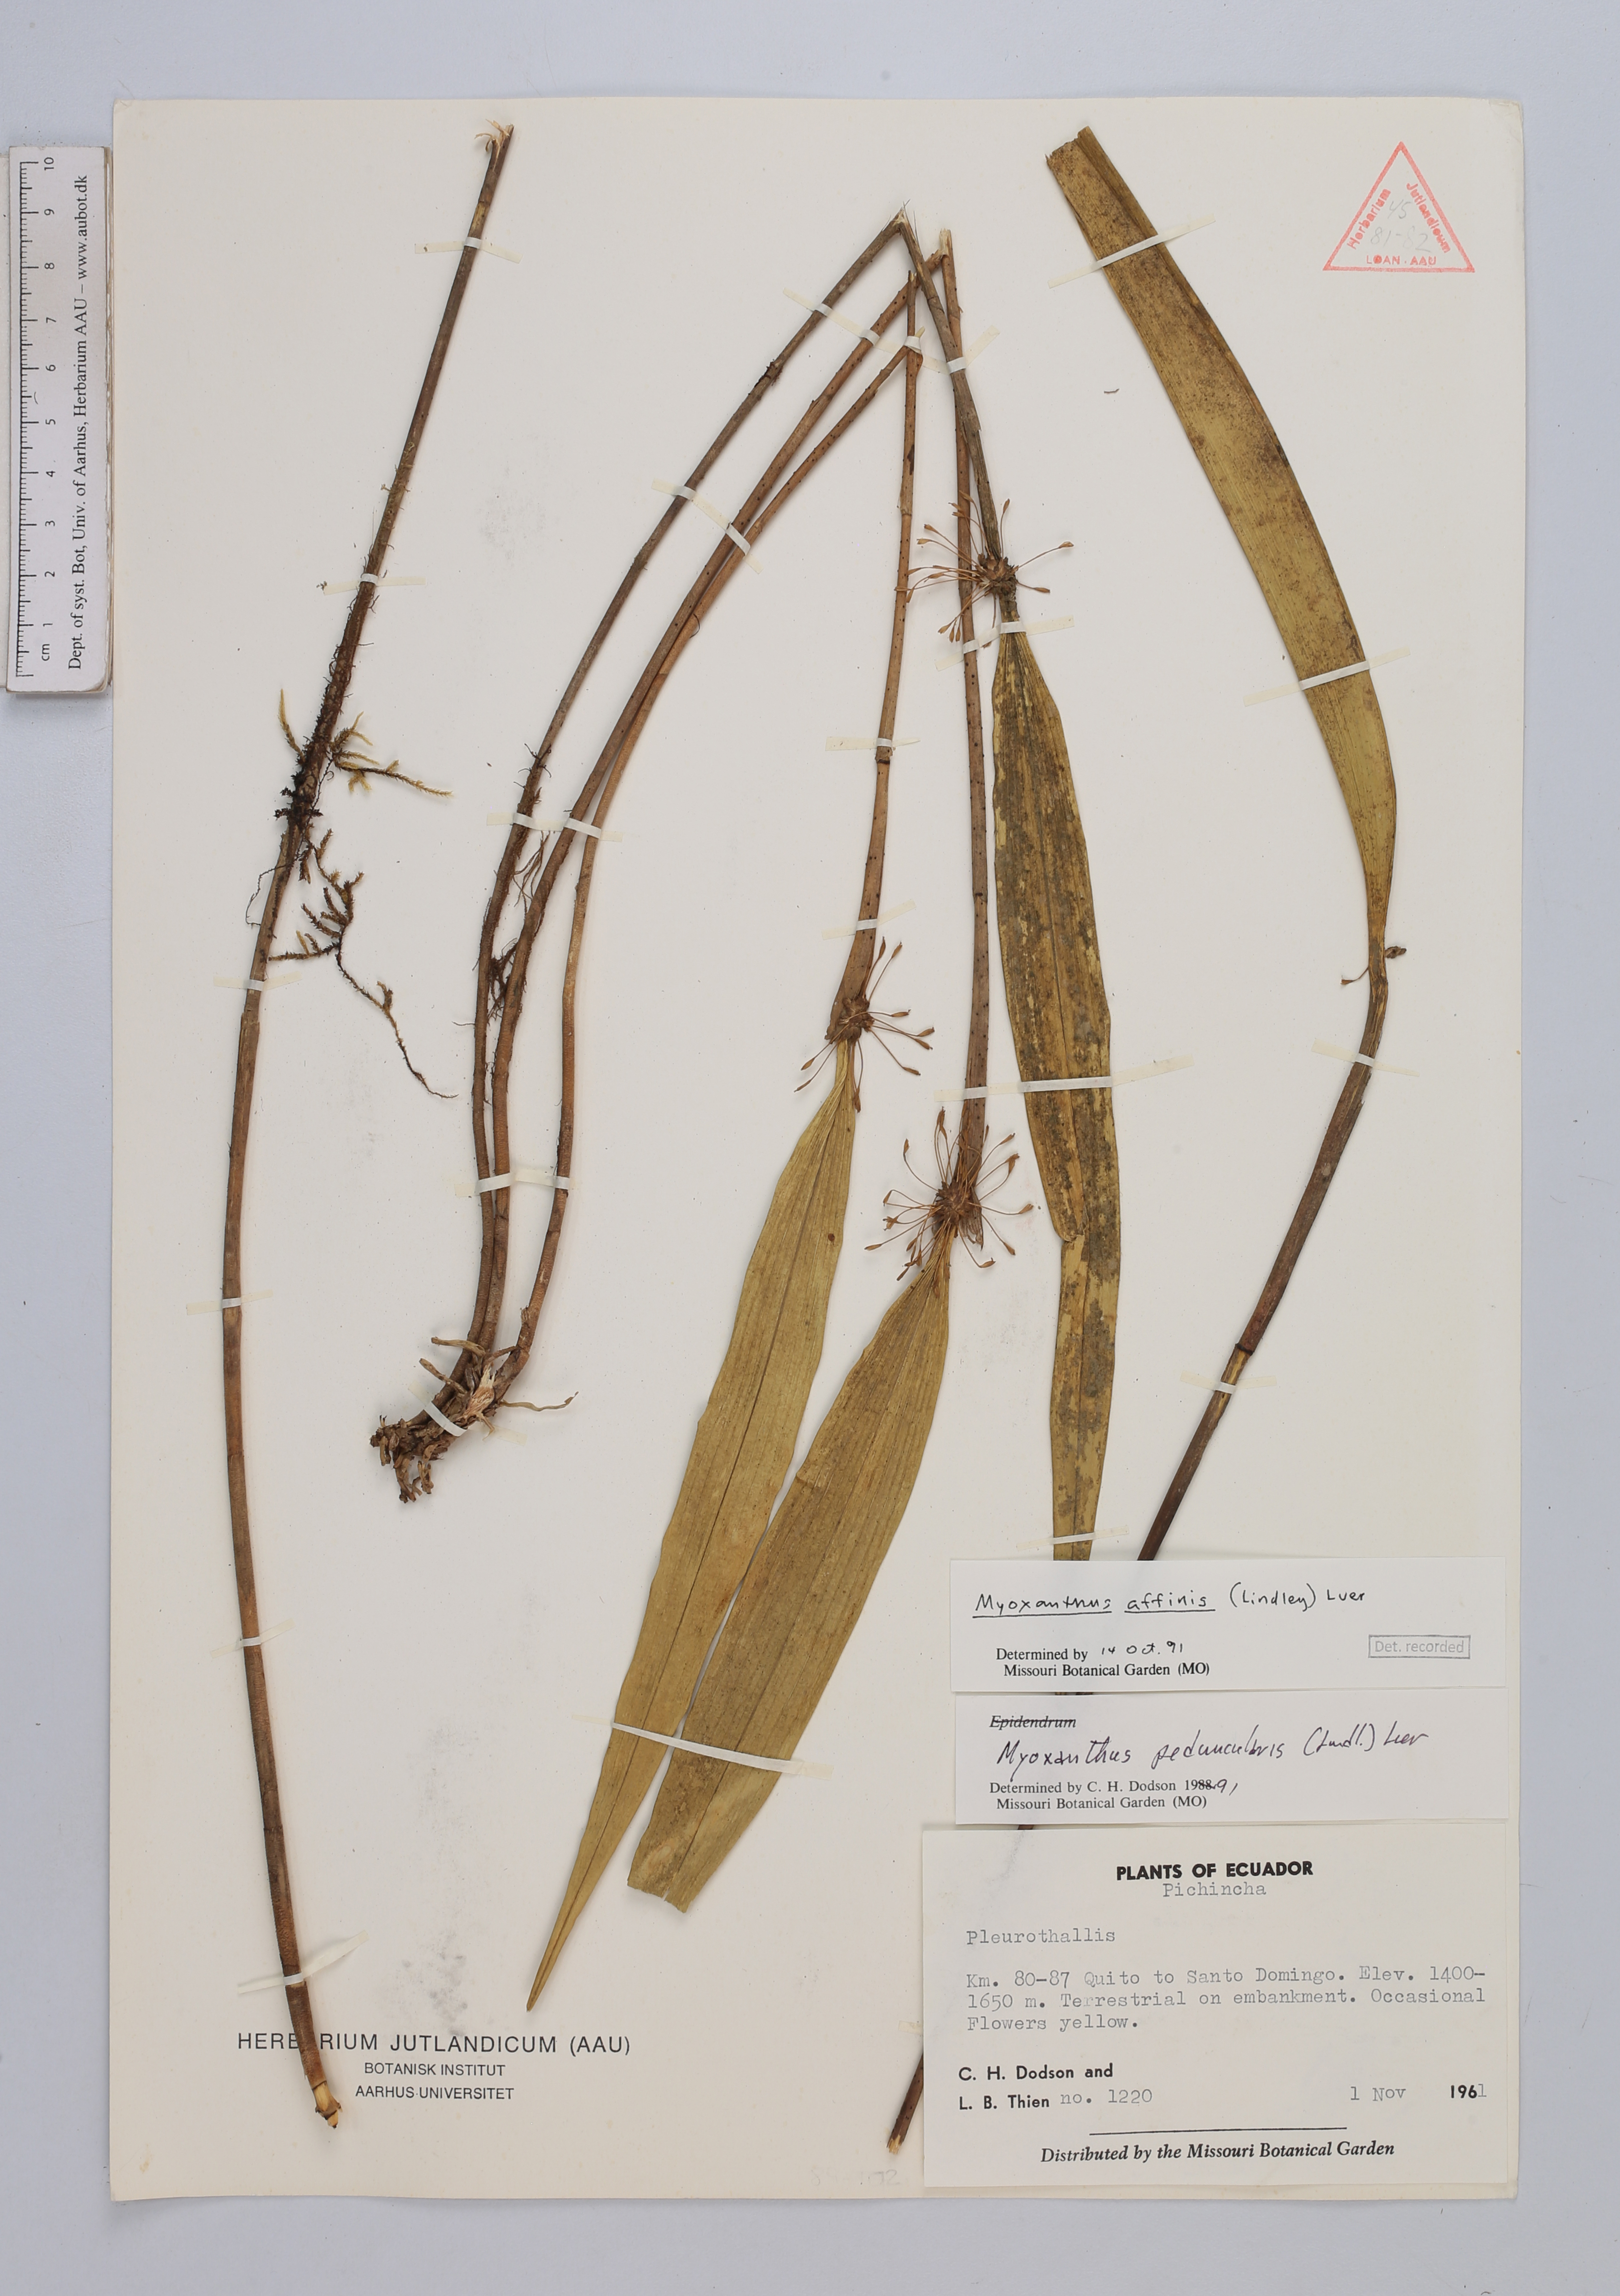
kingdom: Plantae
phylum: Tracheophyta
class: Liliopsida
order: Asparagales
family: Orchidaceae
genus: Myoxanthus
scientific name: Myoxanthus affinis
